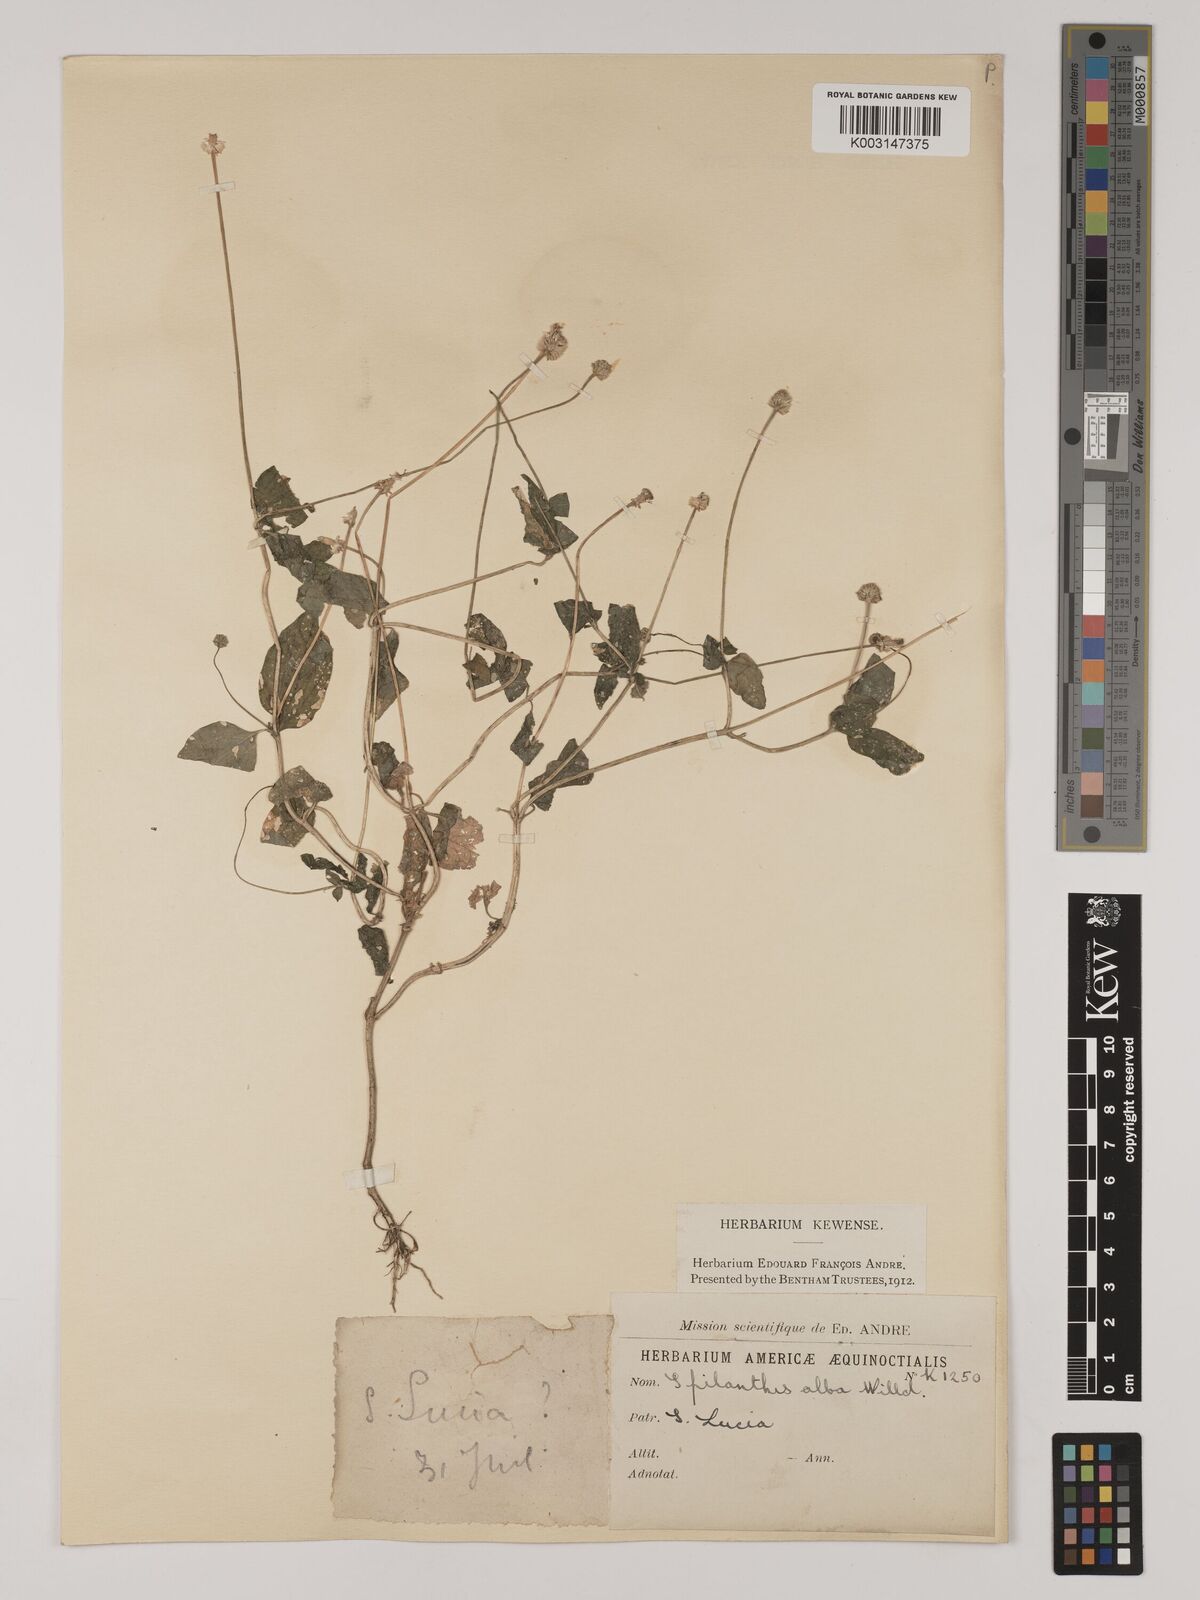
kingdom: Plantae
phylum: Tracheophyta
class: Magnoliopsida
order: Asterales
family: Asteraceae
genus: Acmella
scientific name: Acmella uliginosa
